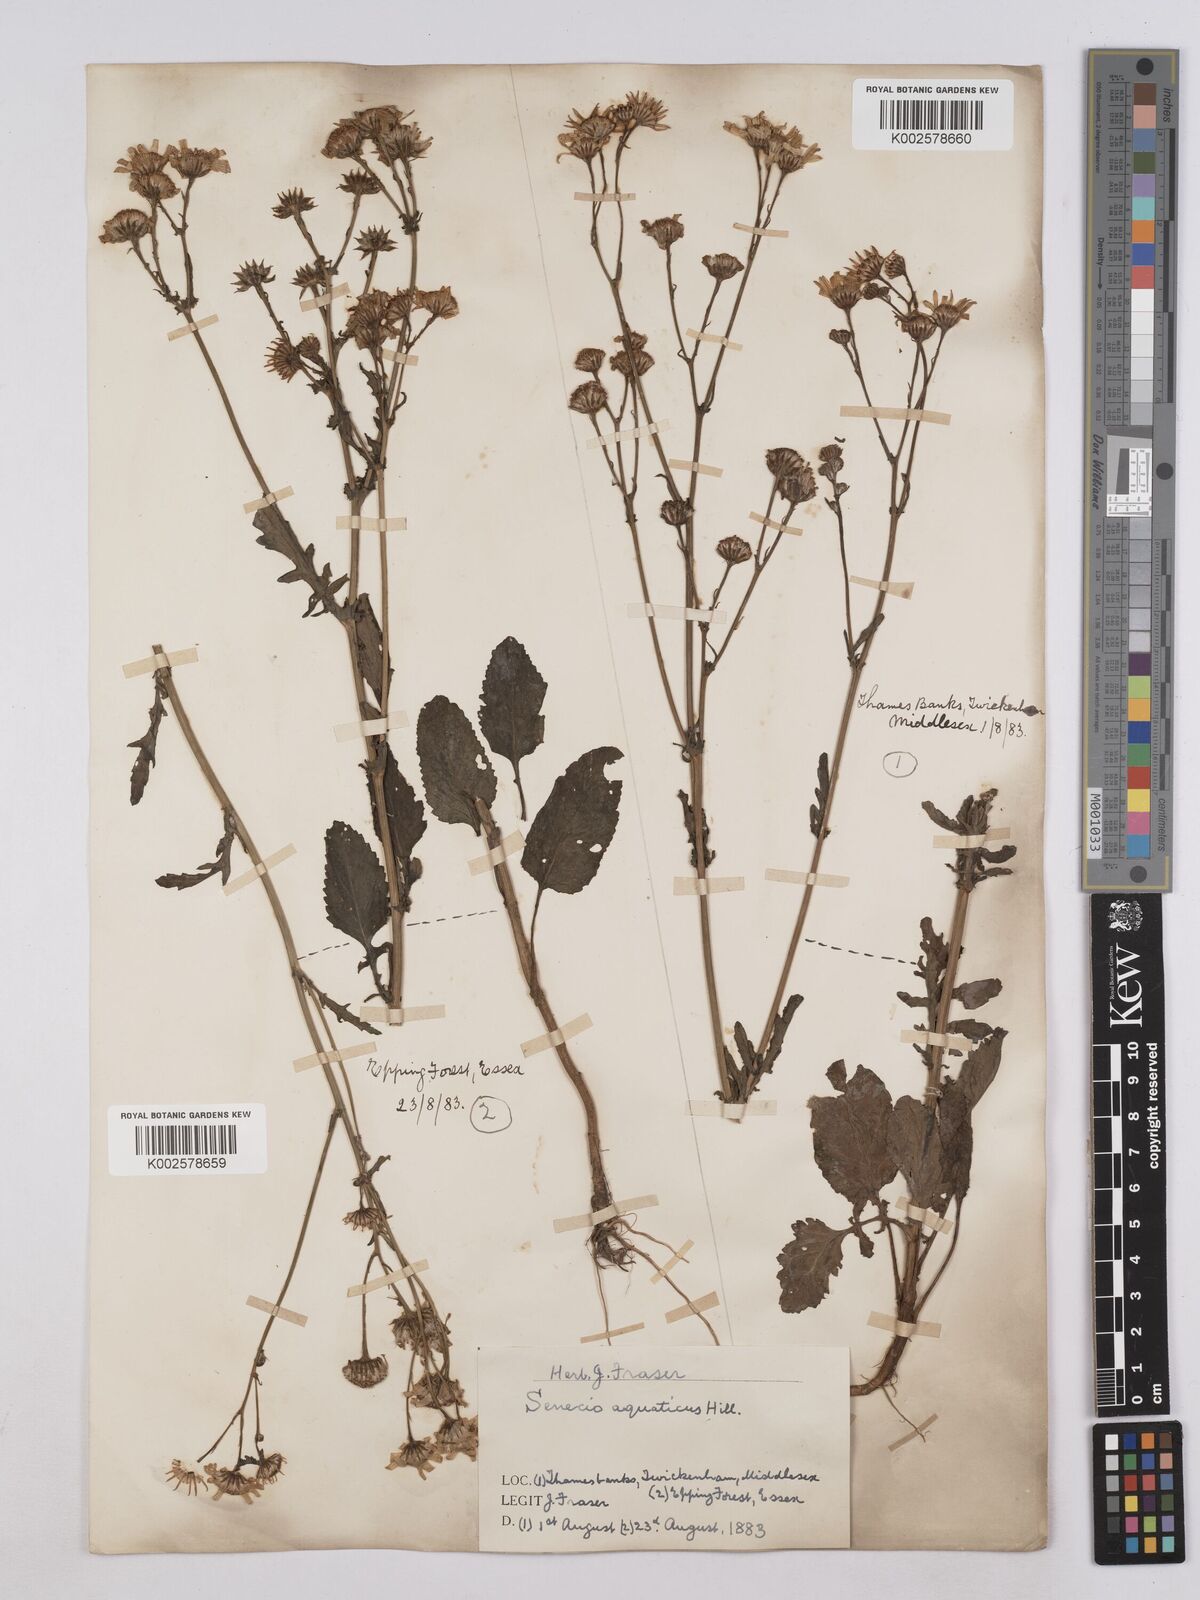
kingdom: Plantae
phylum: Tracheophyta
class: Magnoliopsida
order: Asterales
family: Asteraceae
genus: Jacobaea
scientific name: Jacobaea aquatica
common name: Water ragwort
